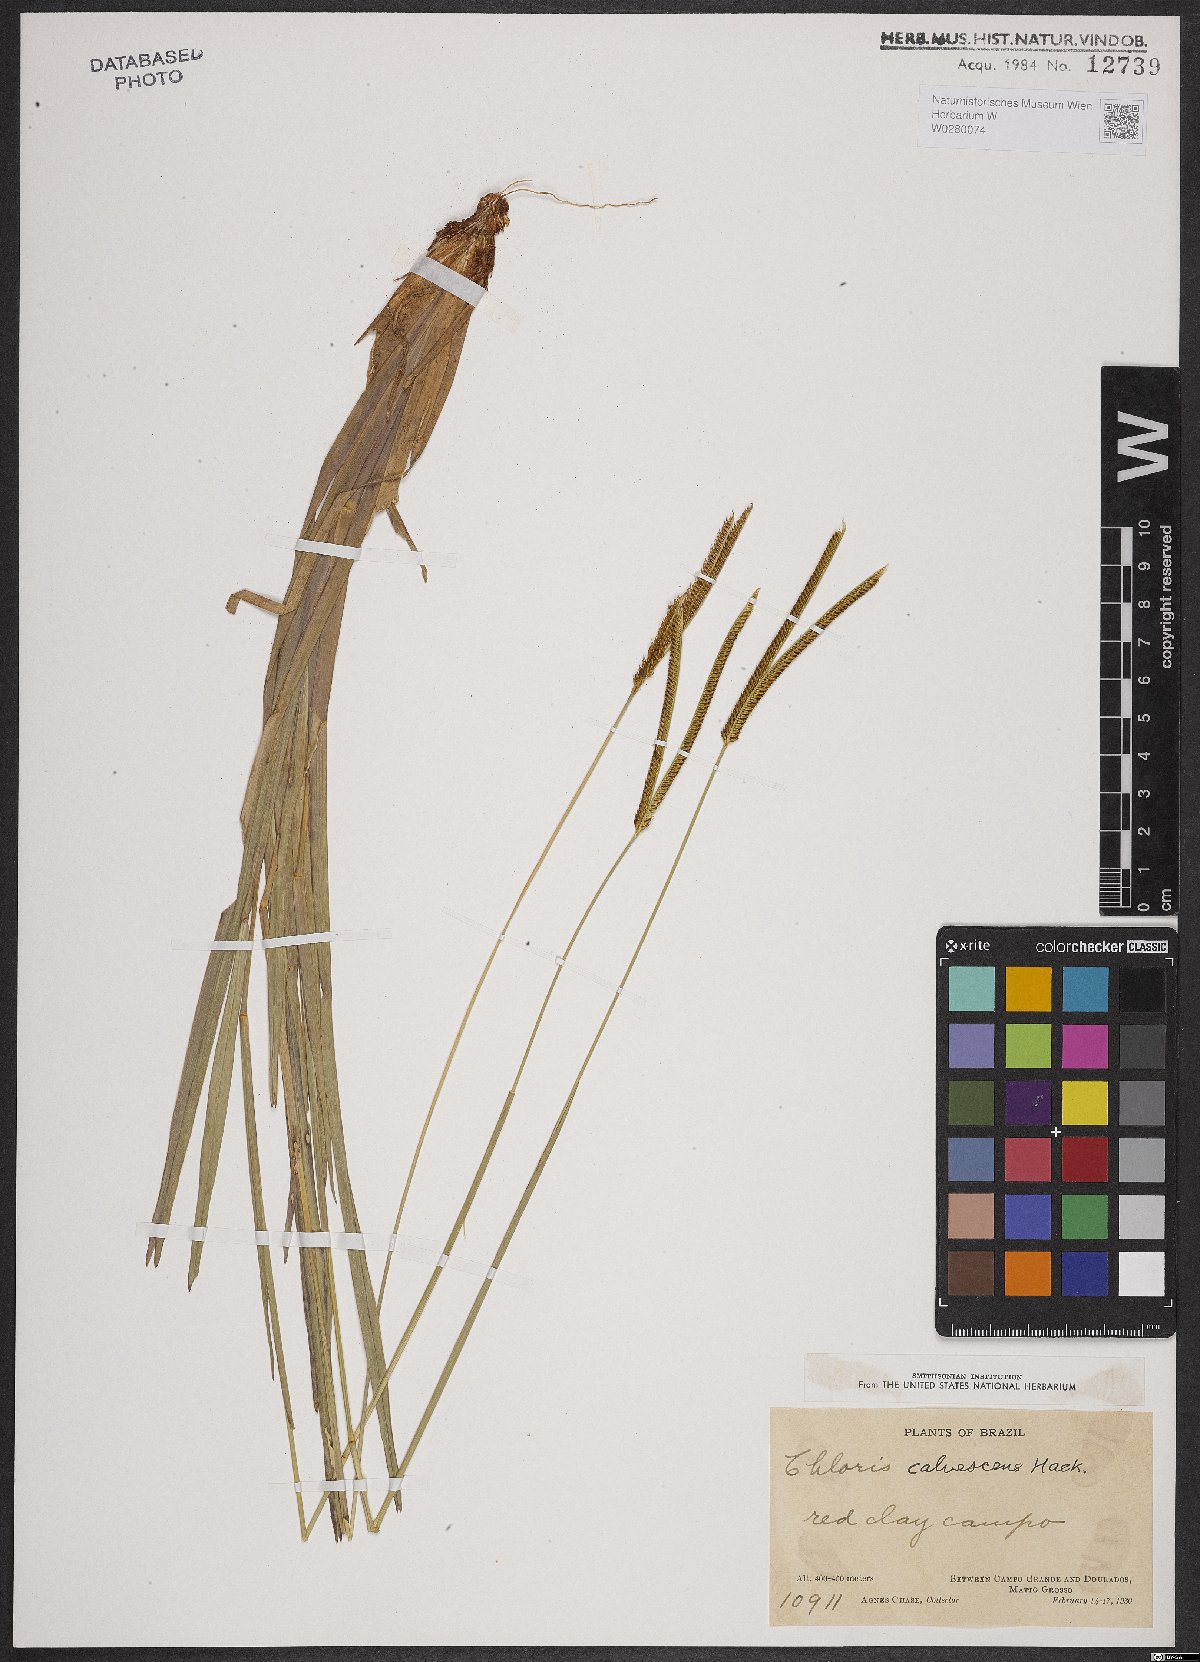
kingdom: Plantae
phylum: Tracheophyta
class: Liliopsida
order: Poales
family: Poaceae
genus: Eustachys
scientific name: Eustachys calvescens
